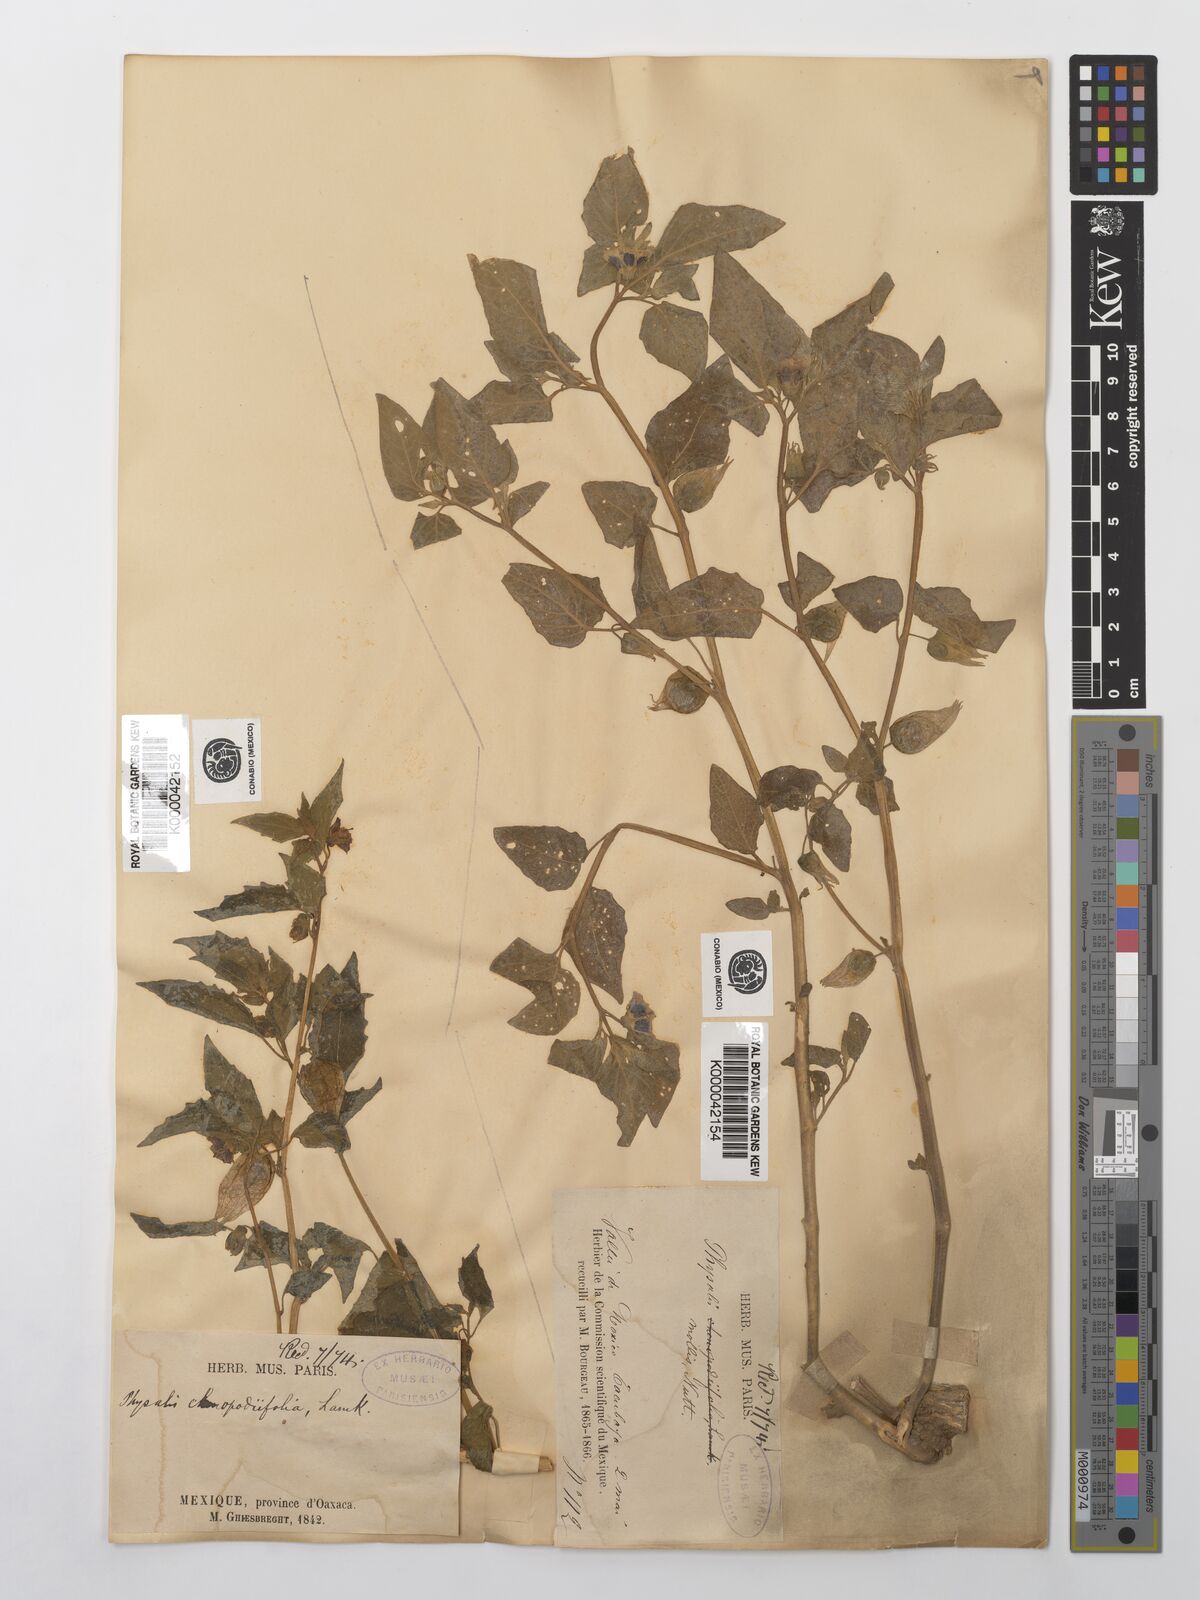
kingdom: Plantae
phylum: Tracheophyta
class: Magnoliopsida
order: Solanales
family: Solanaceae
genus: Physalis
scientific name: Physalis cinerascens
